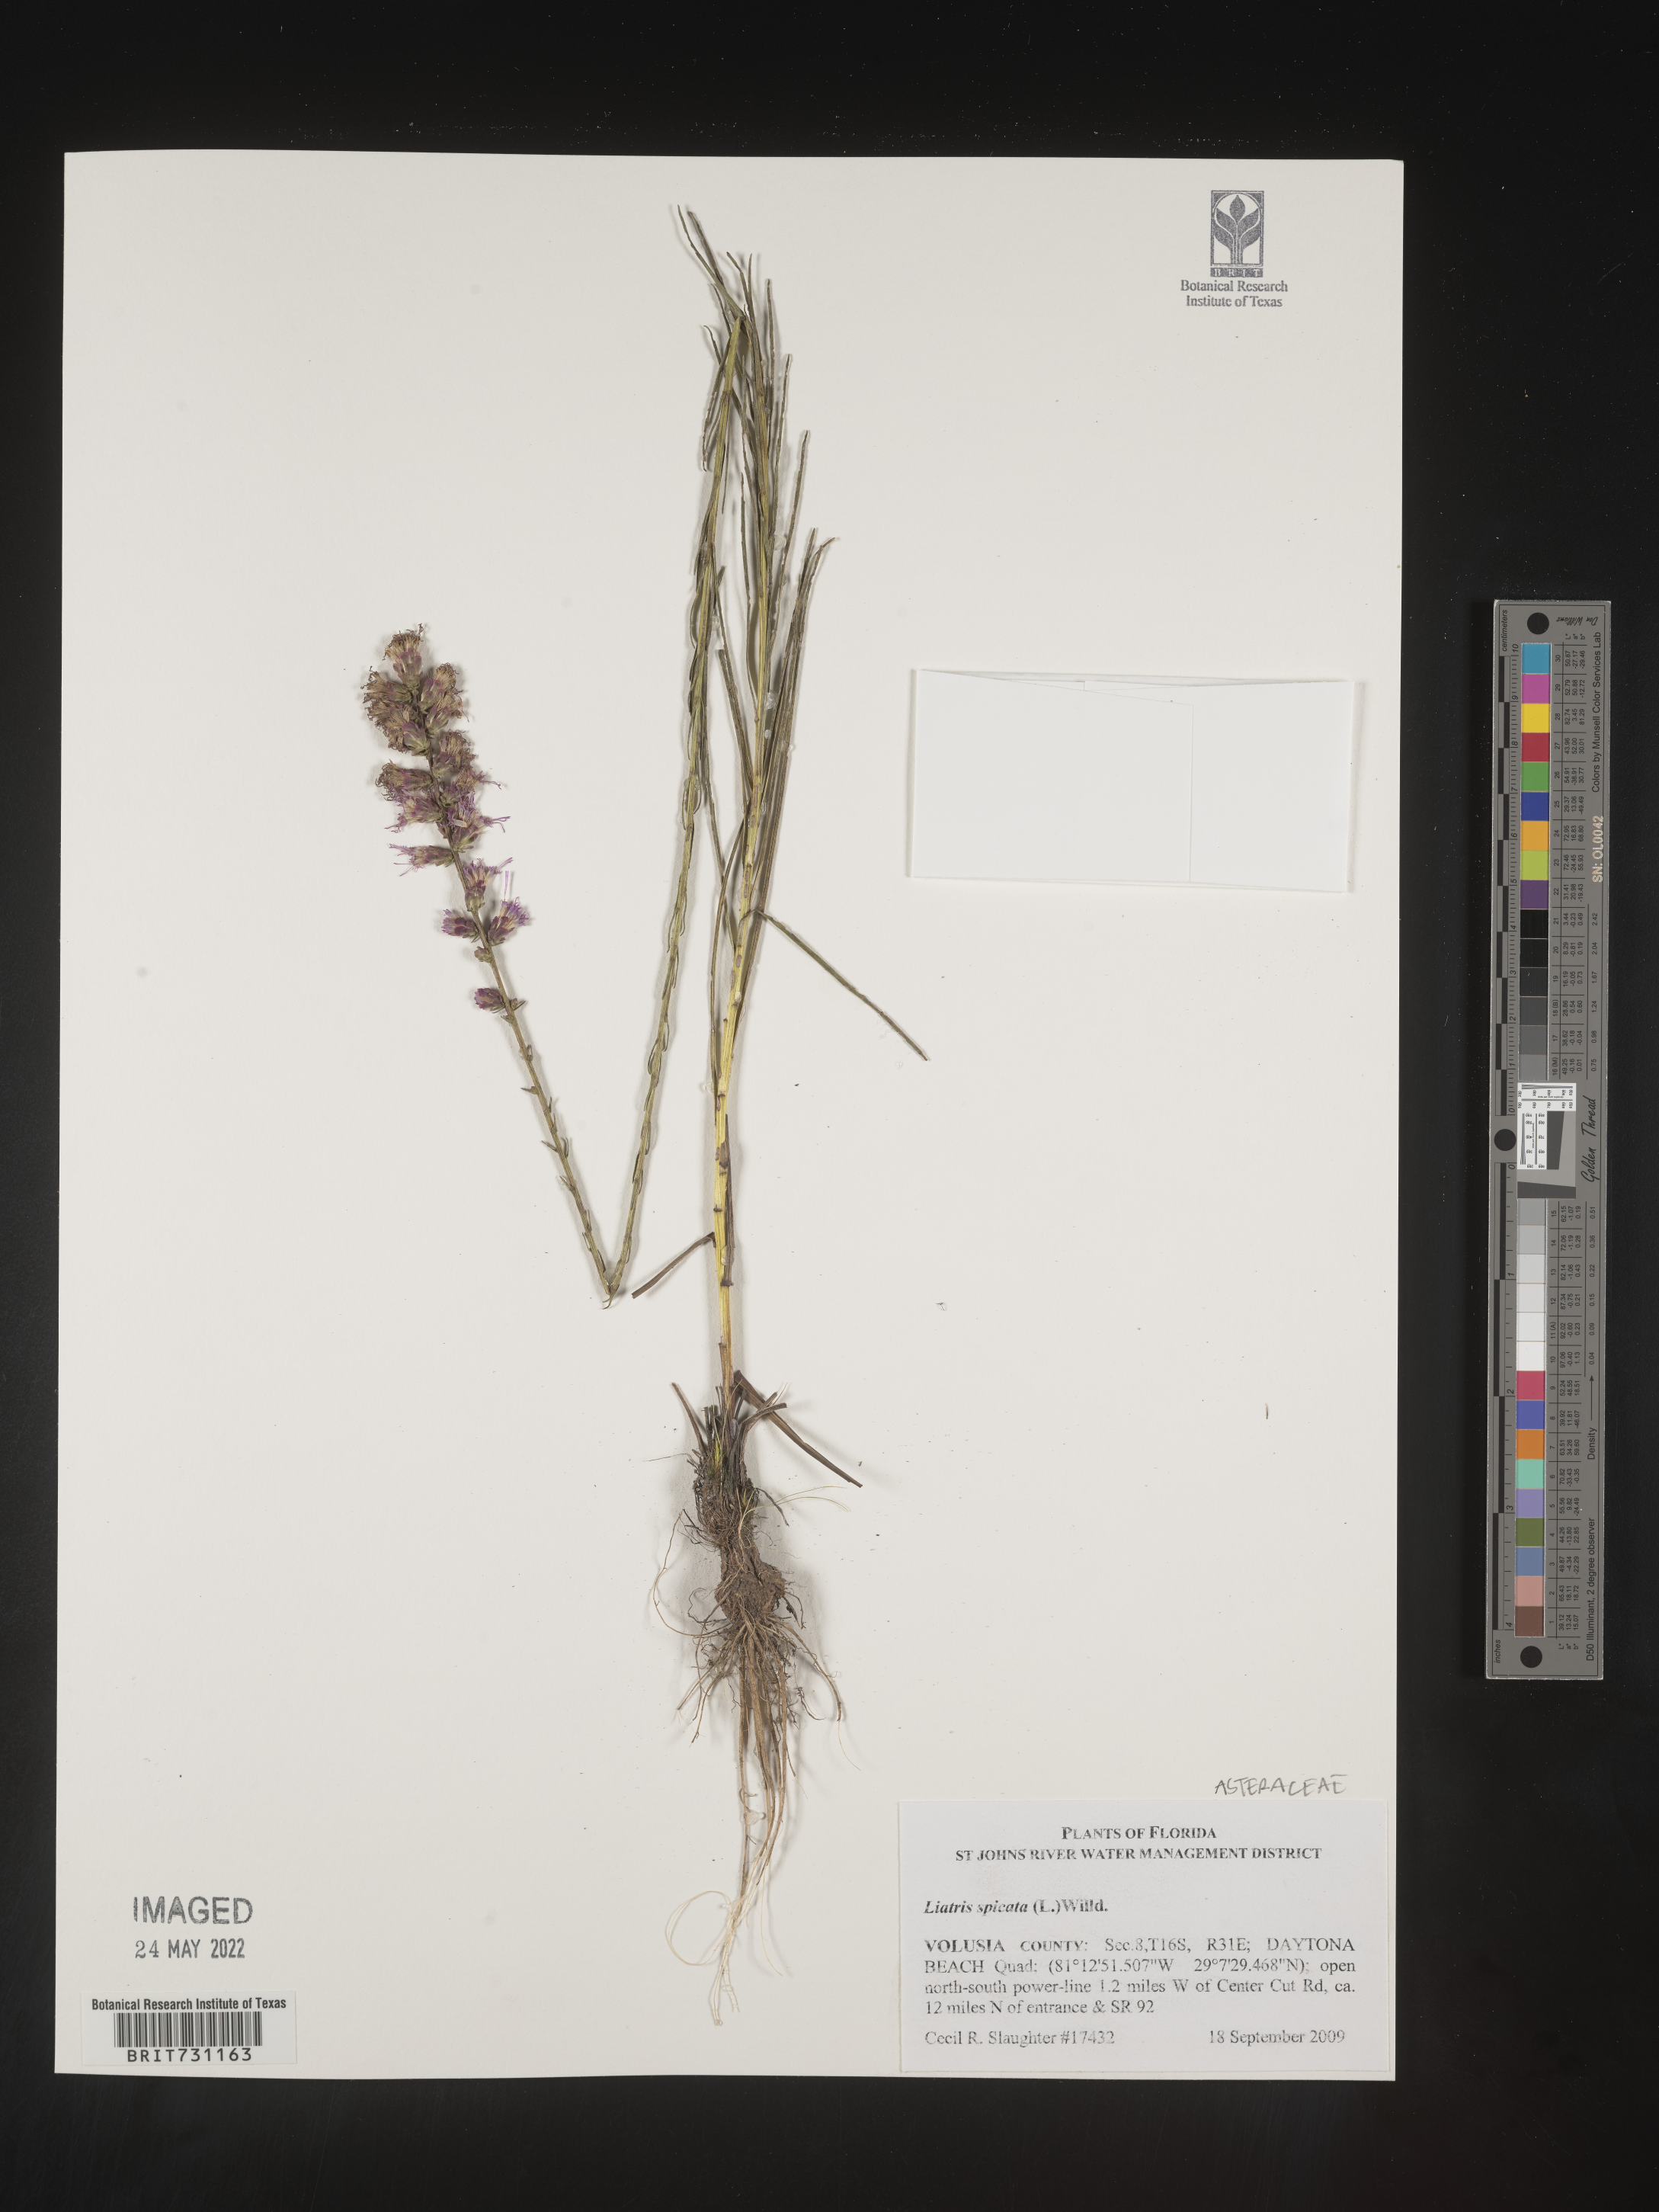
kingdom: Plantae
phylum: Tracheophyta
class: Magnoliopsida
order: Asterales
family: Asteraceae
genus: Liatris
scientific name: Liatris spicata
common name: Florist gayfeather
